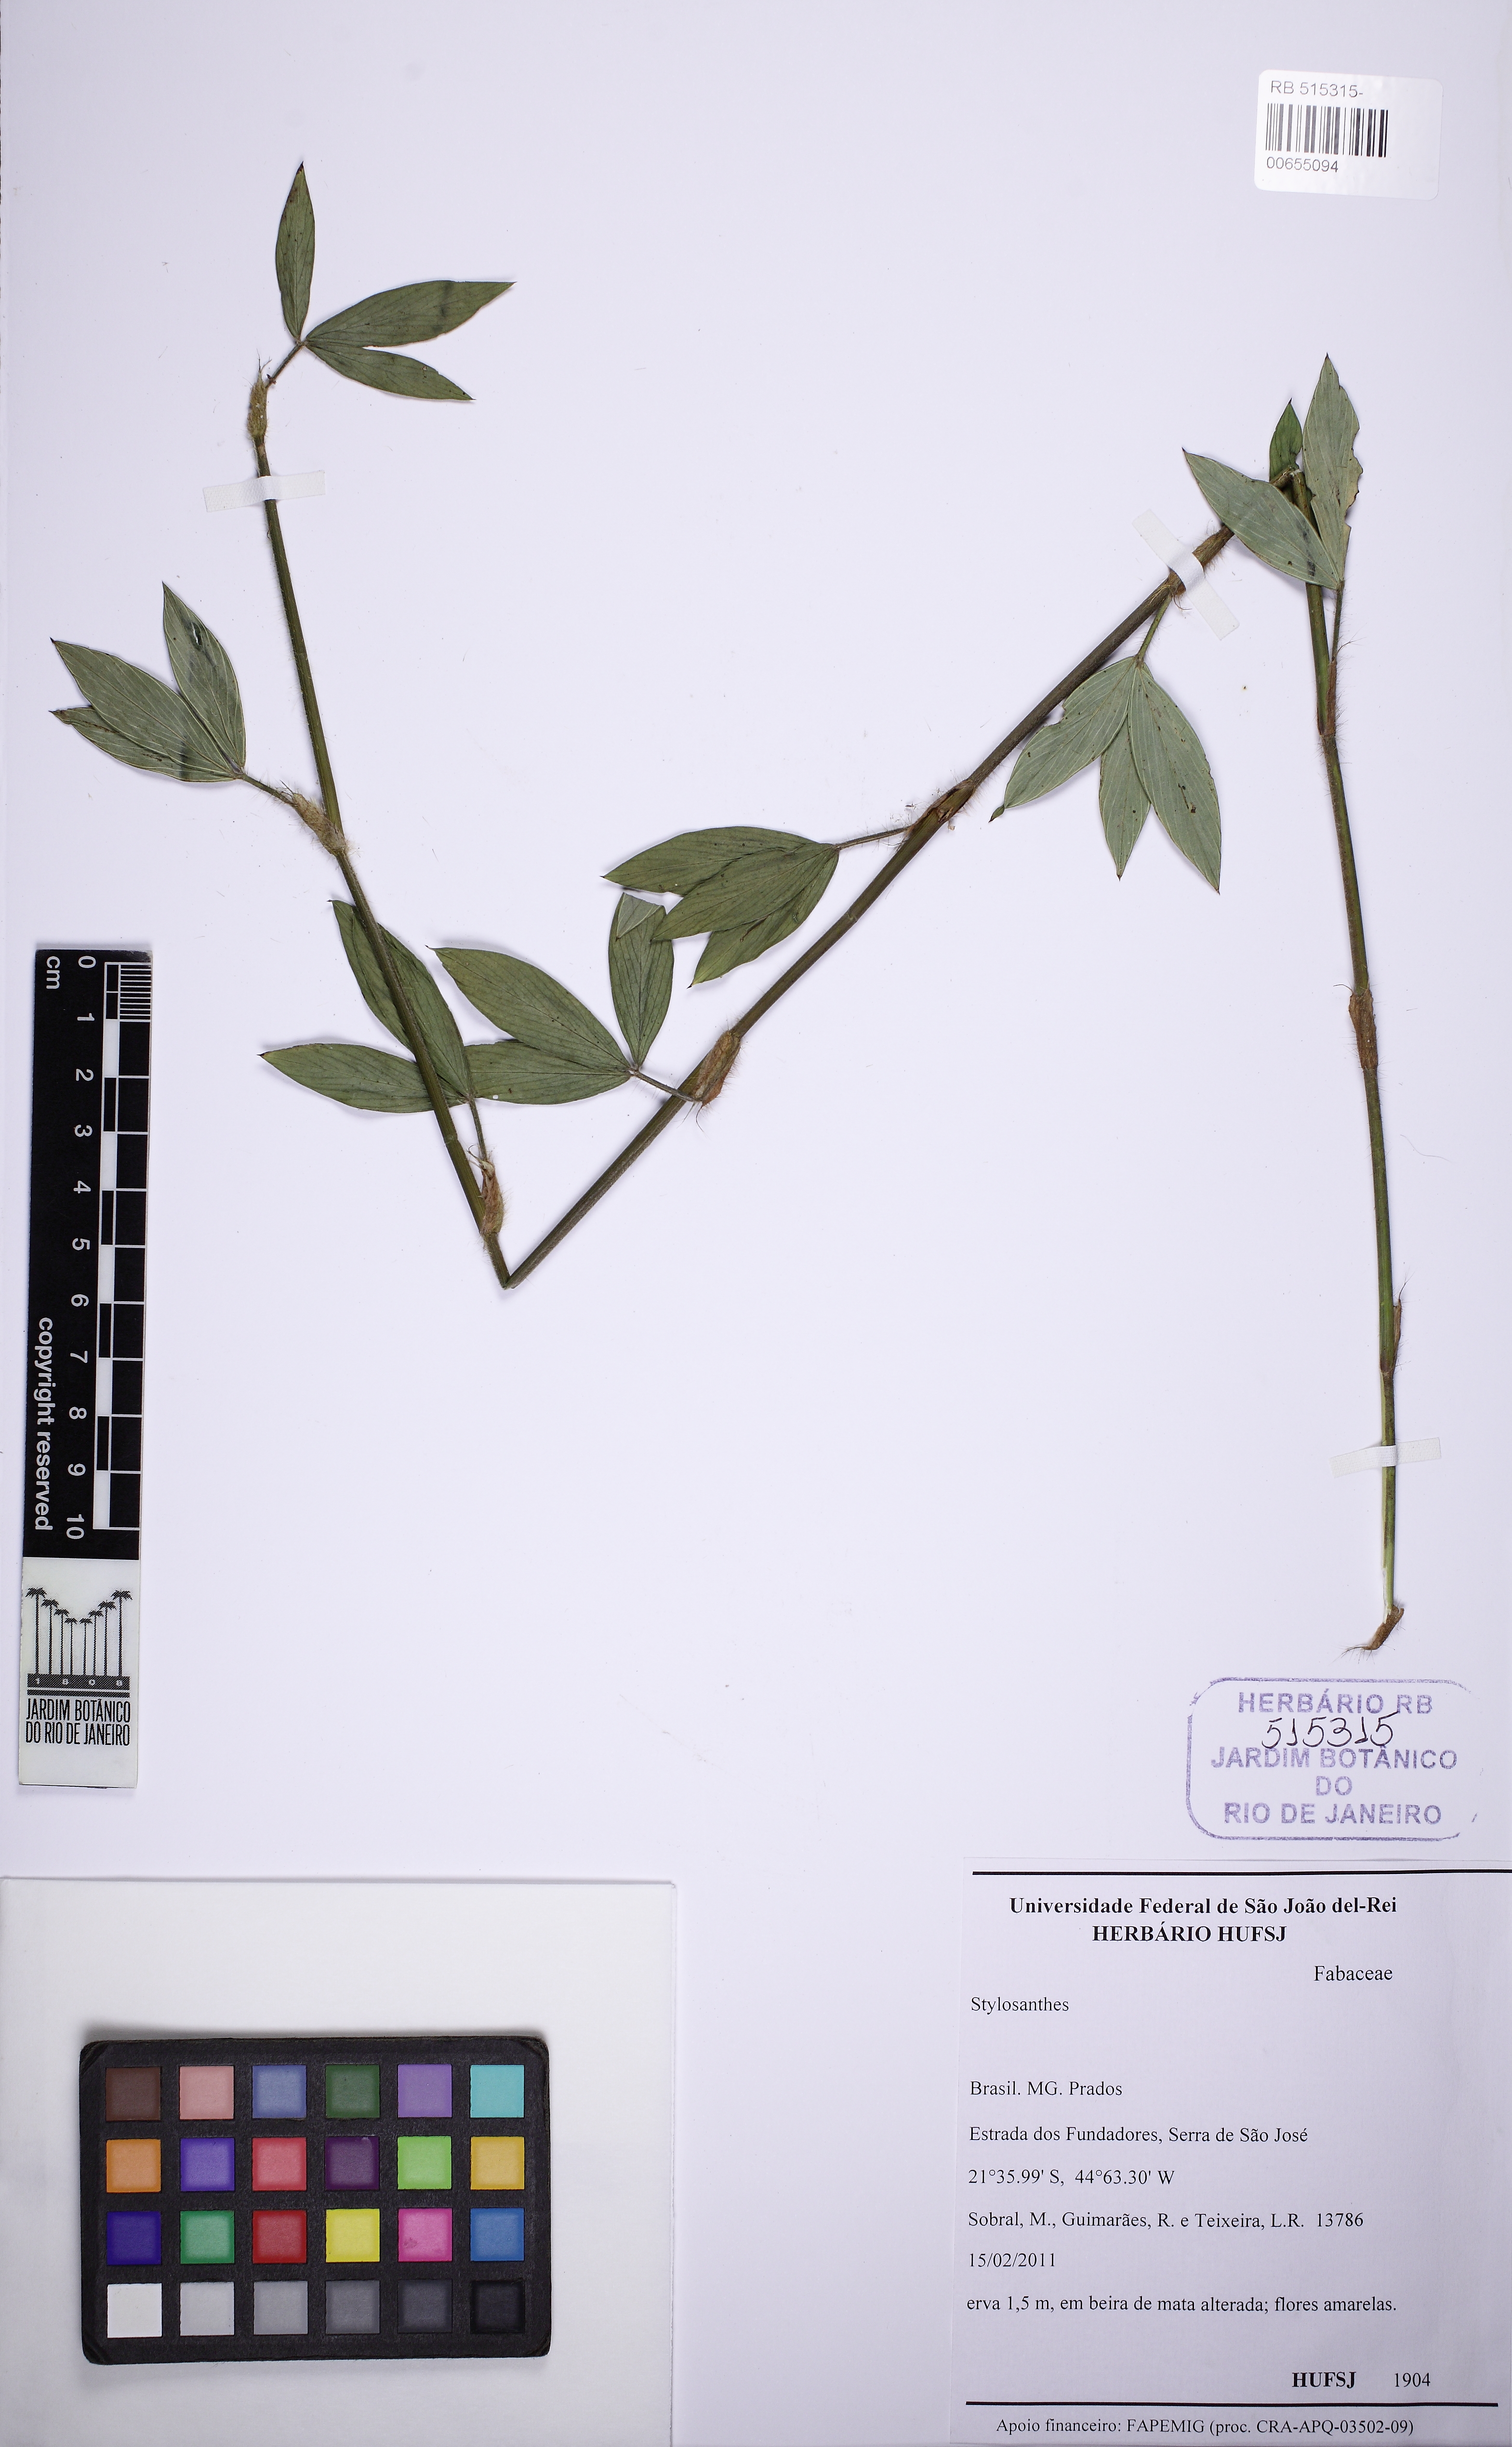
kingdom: Plantae
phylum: Tracheophyta
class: Magnoliopsida
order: Fabales
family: Fabaceae
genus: Stylosanthes
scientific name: Stylosanthes guianensis
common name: Pencil flower
